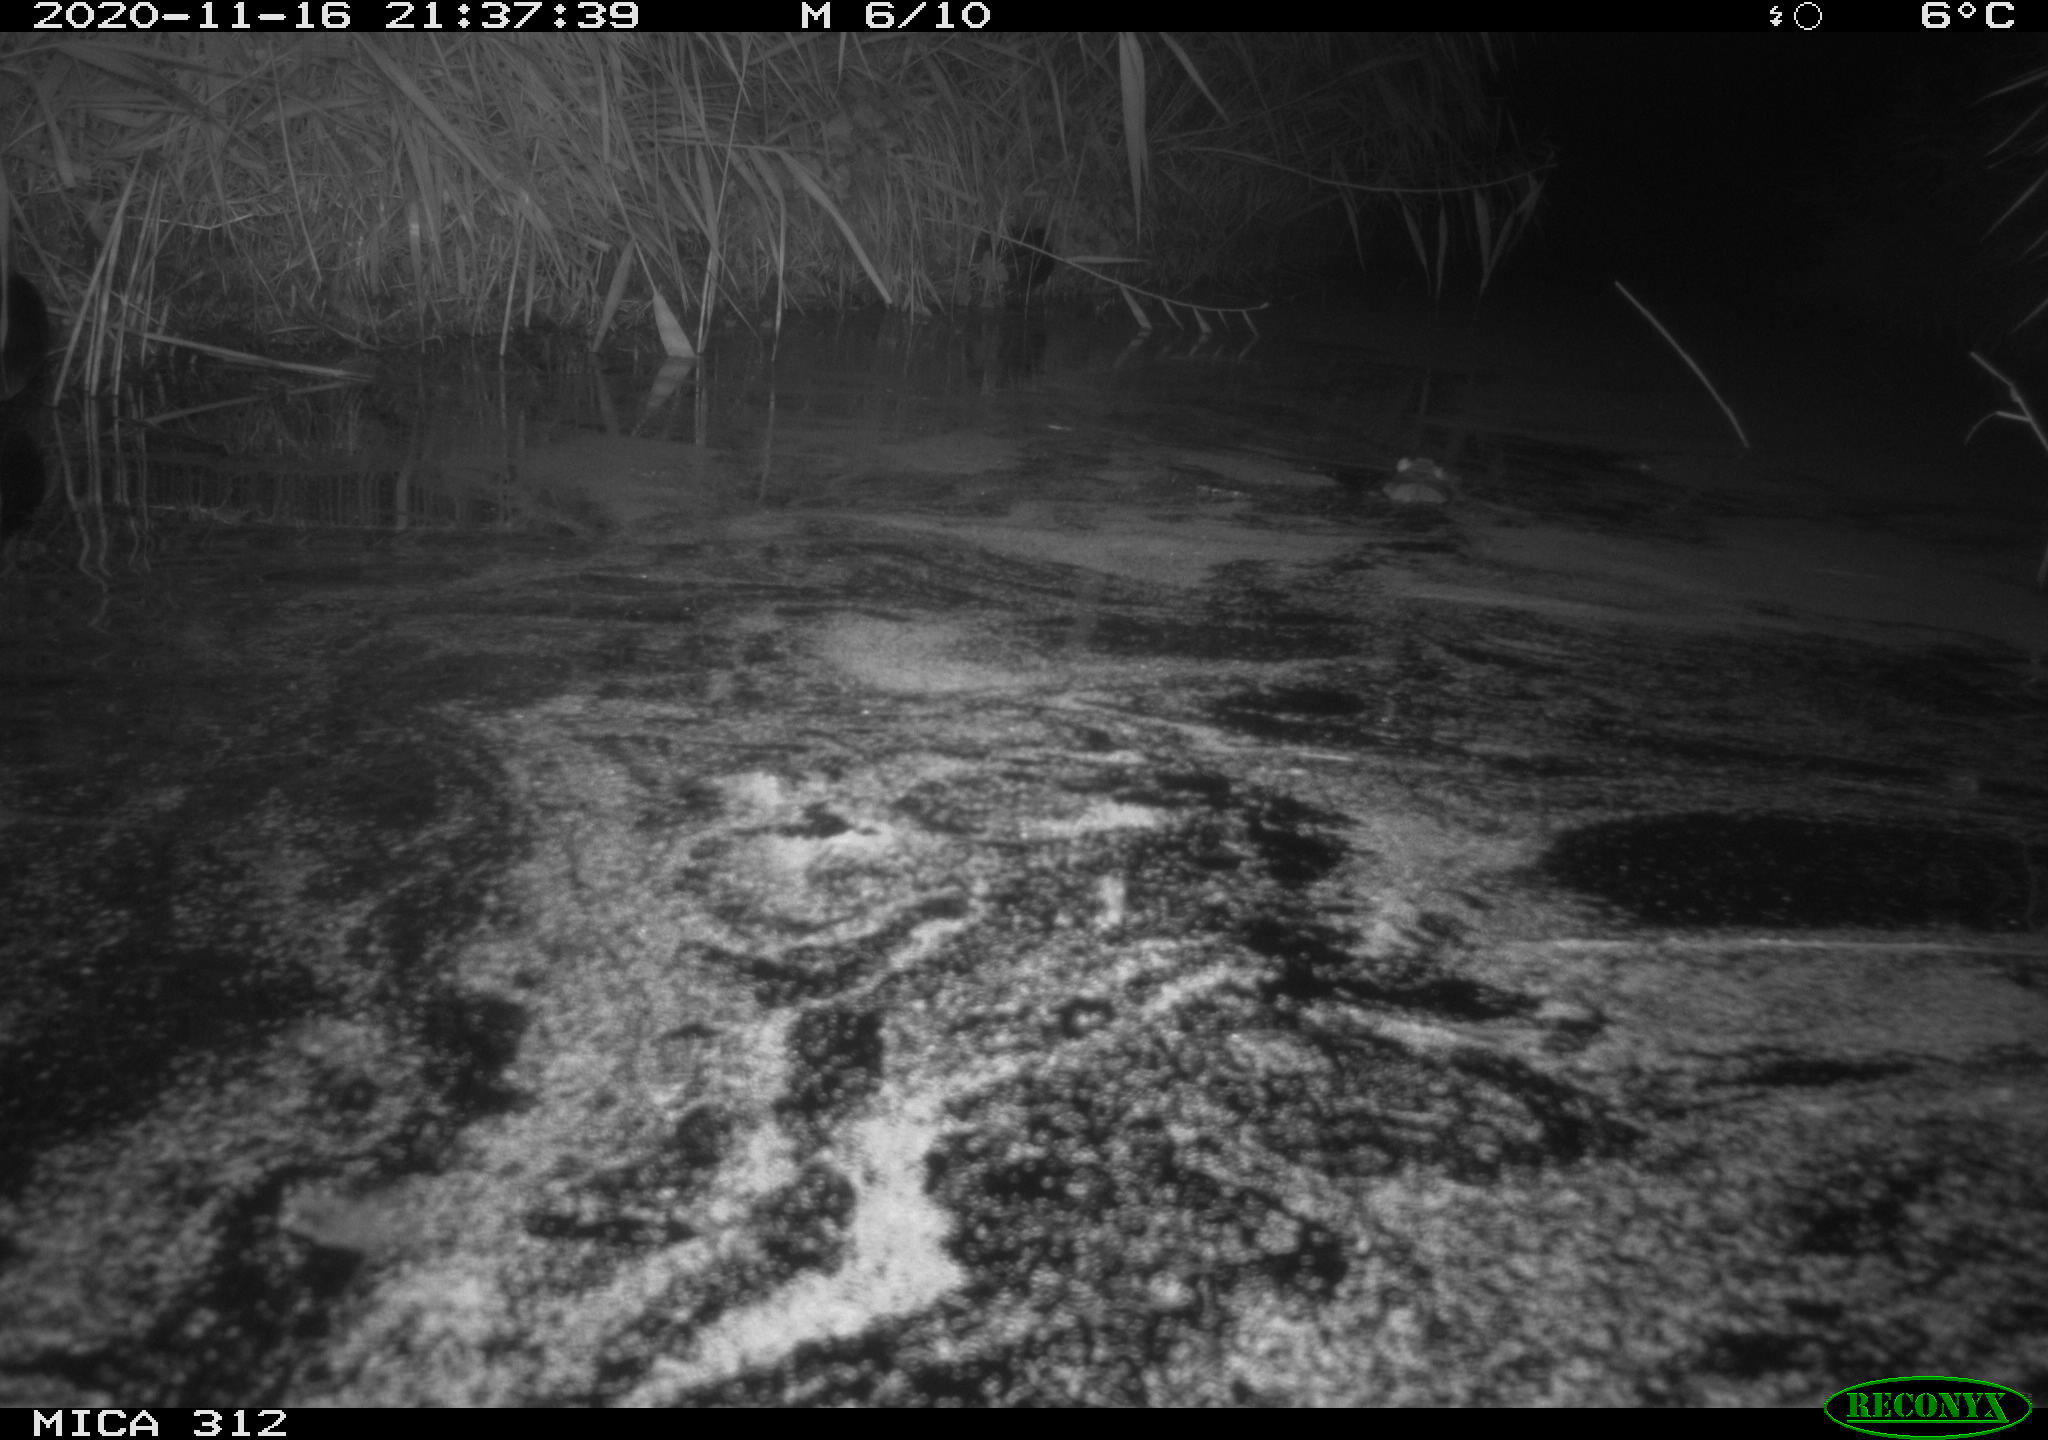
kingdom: Animalia
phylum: Chordata
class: Mammalia
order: Rodentia
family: Muridae
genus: Rattus
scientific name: Rattus norvegicus
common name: Brown rat
